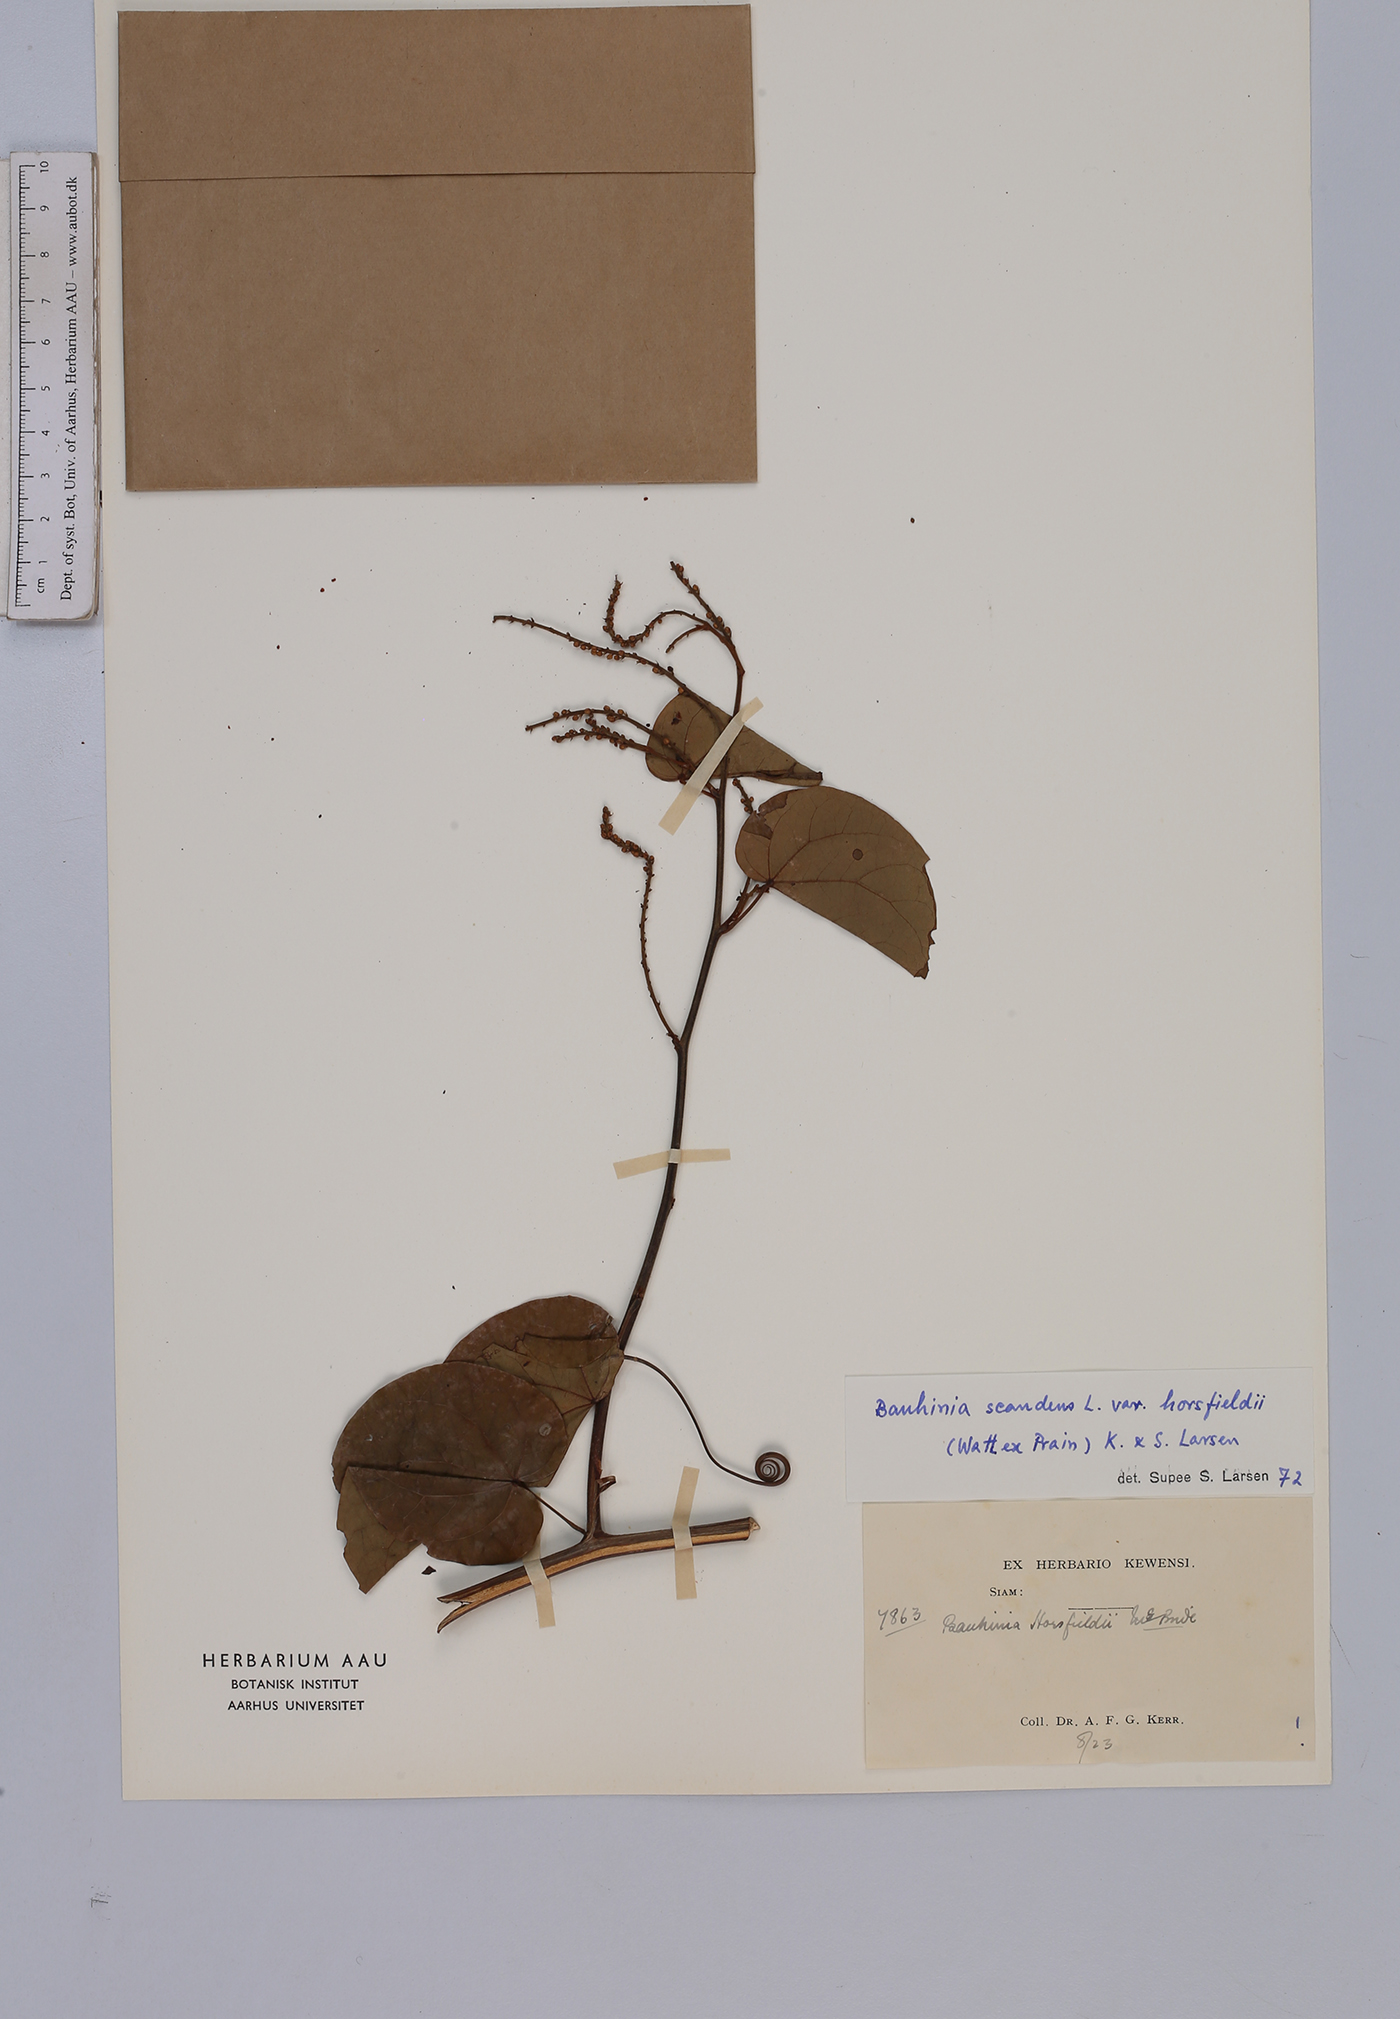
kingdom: Plantae
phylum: Tracheophyta
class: Magnoliopsida
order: Fabales
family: Fabaceae
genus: Phanera
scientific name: Phanera scandens
